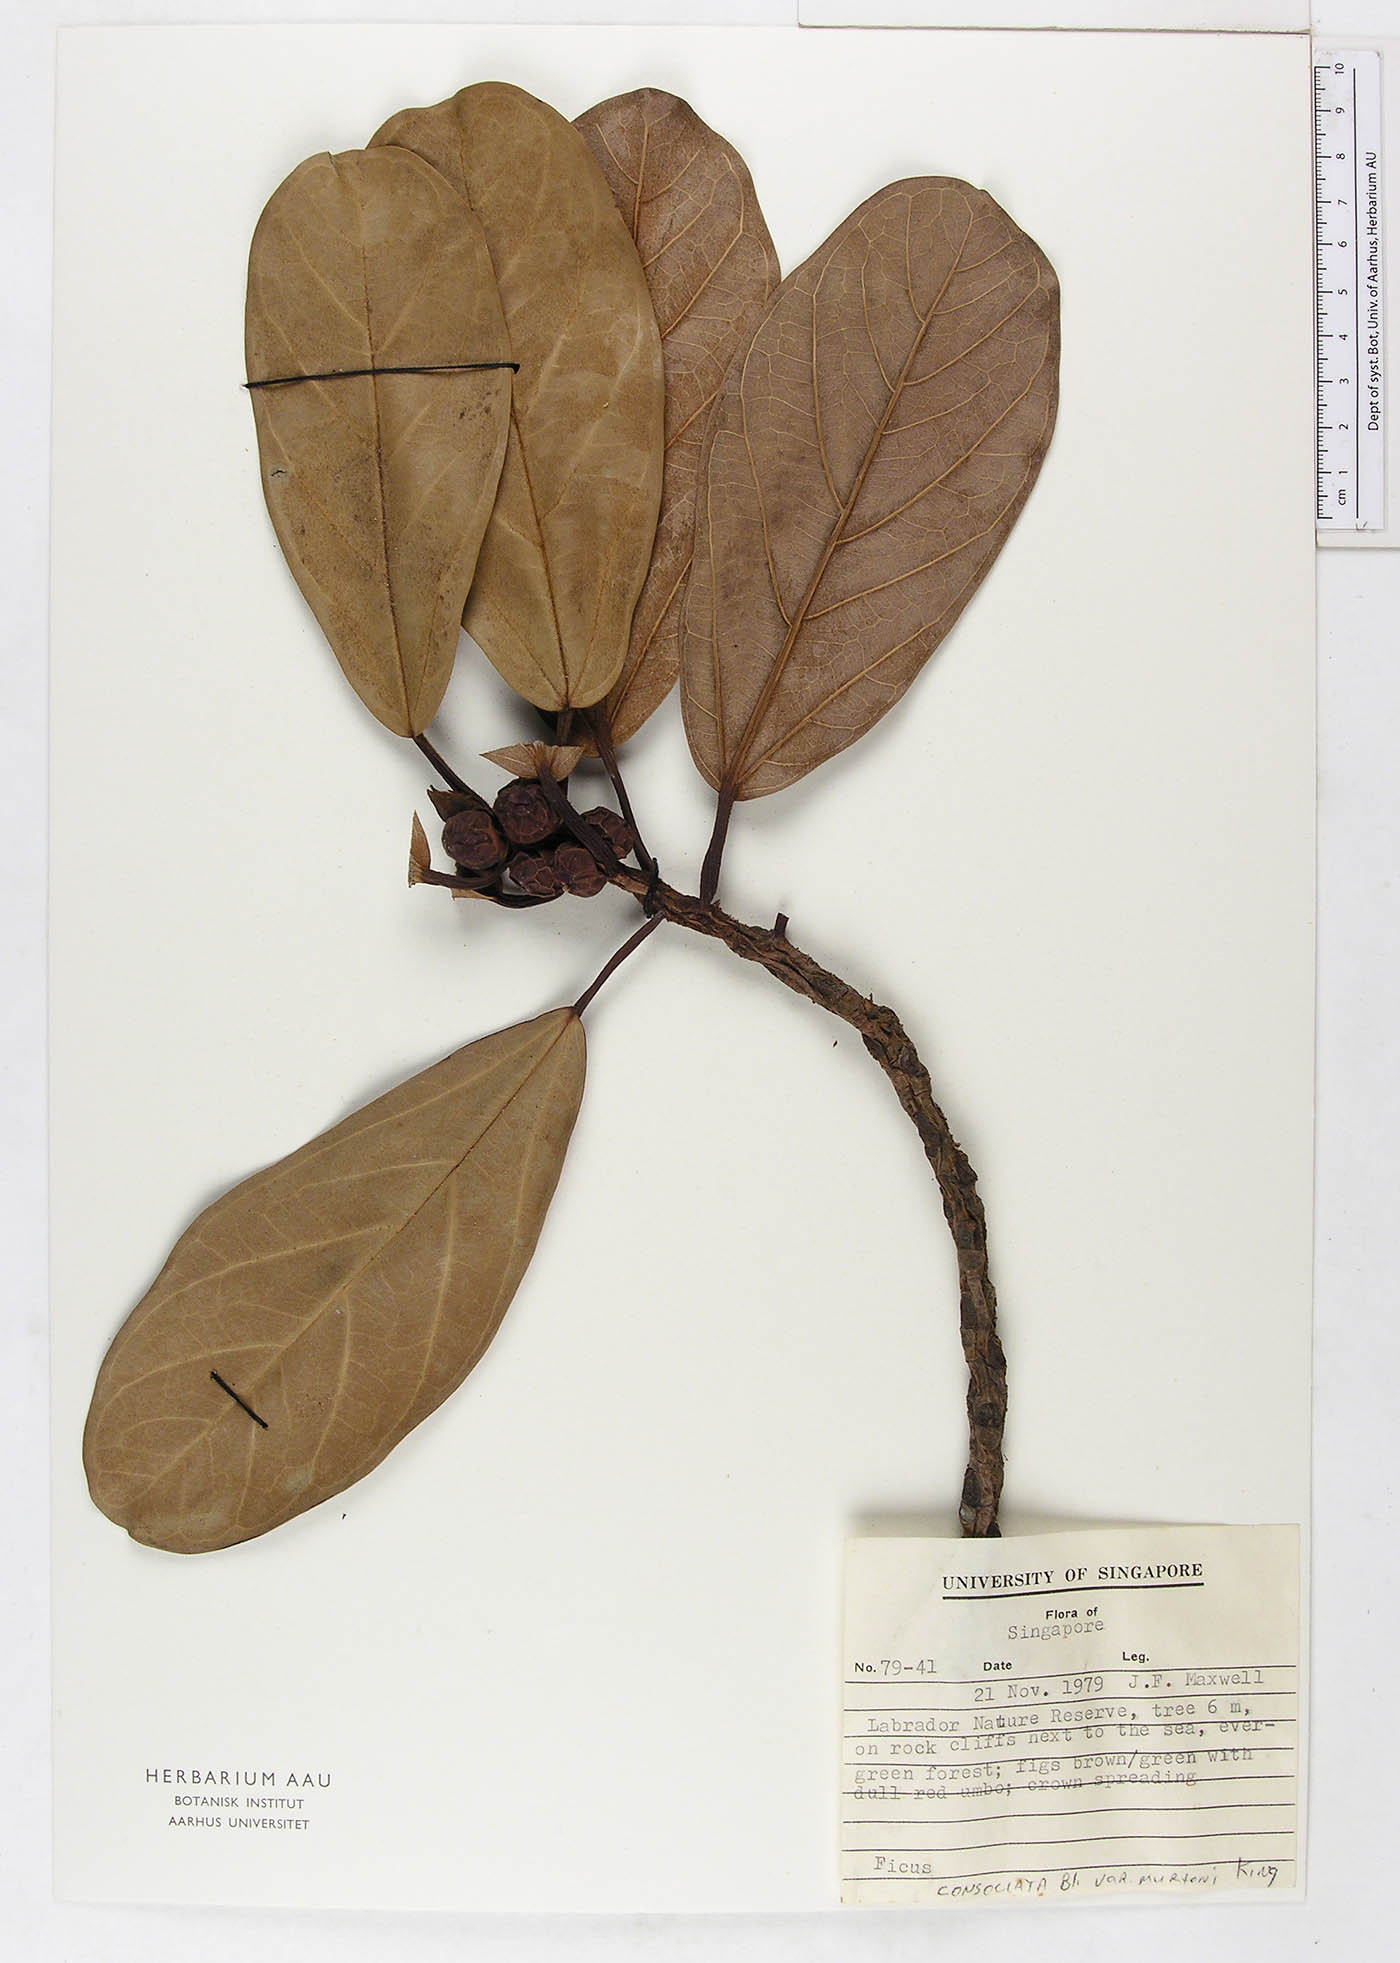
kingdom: Plantae
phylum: Tracheophyta
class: Magnoliopsida
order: Rosales
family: Moraceae
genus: Ficus
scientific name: Ficus consociata
